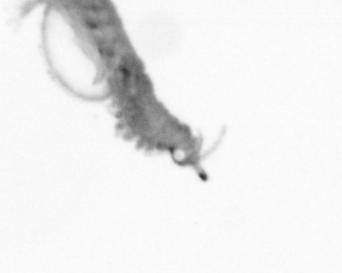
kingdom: Animalia
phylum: Annelida
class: Polychaeta
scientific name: Polychaeta
